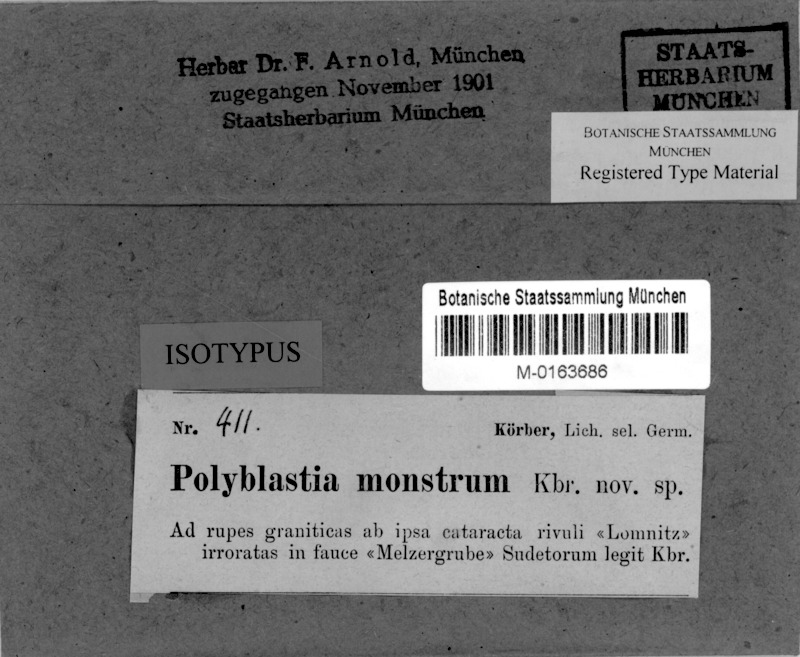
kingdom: Fungi
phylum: Ascomycota
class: Eurotiomycetes
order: Verrucariales
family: Verrucariaceae
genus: Polyblastia
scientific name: Polyblastia
